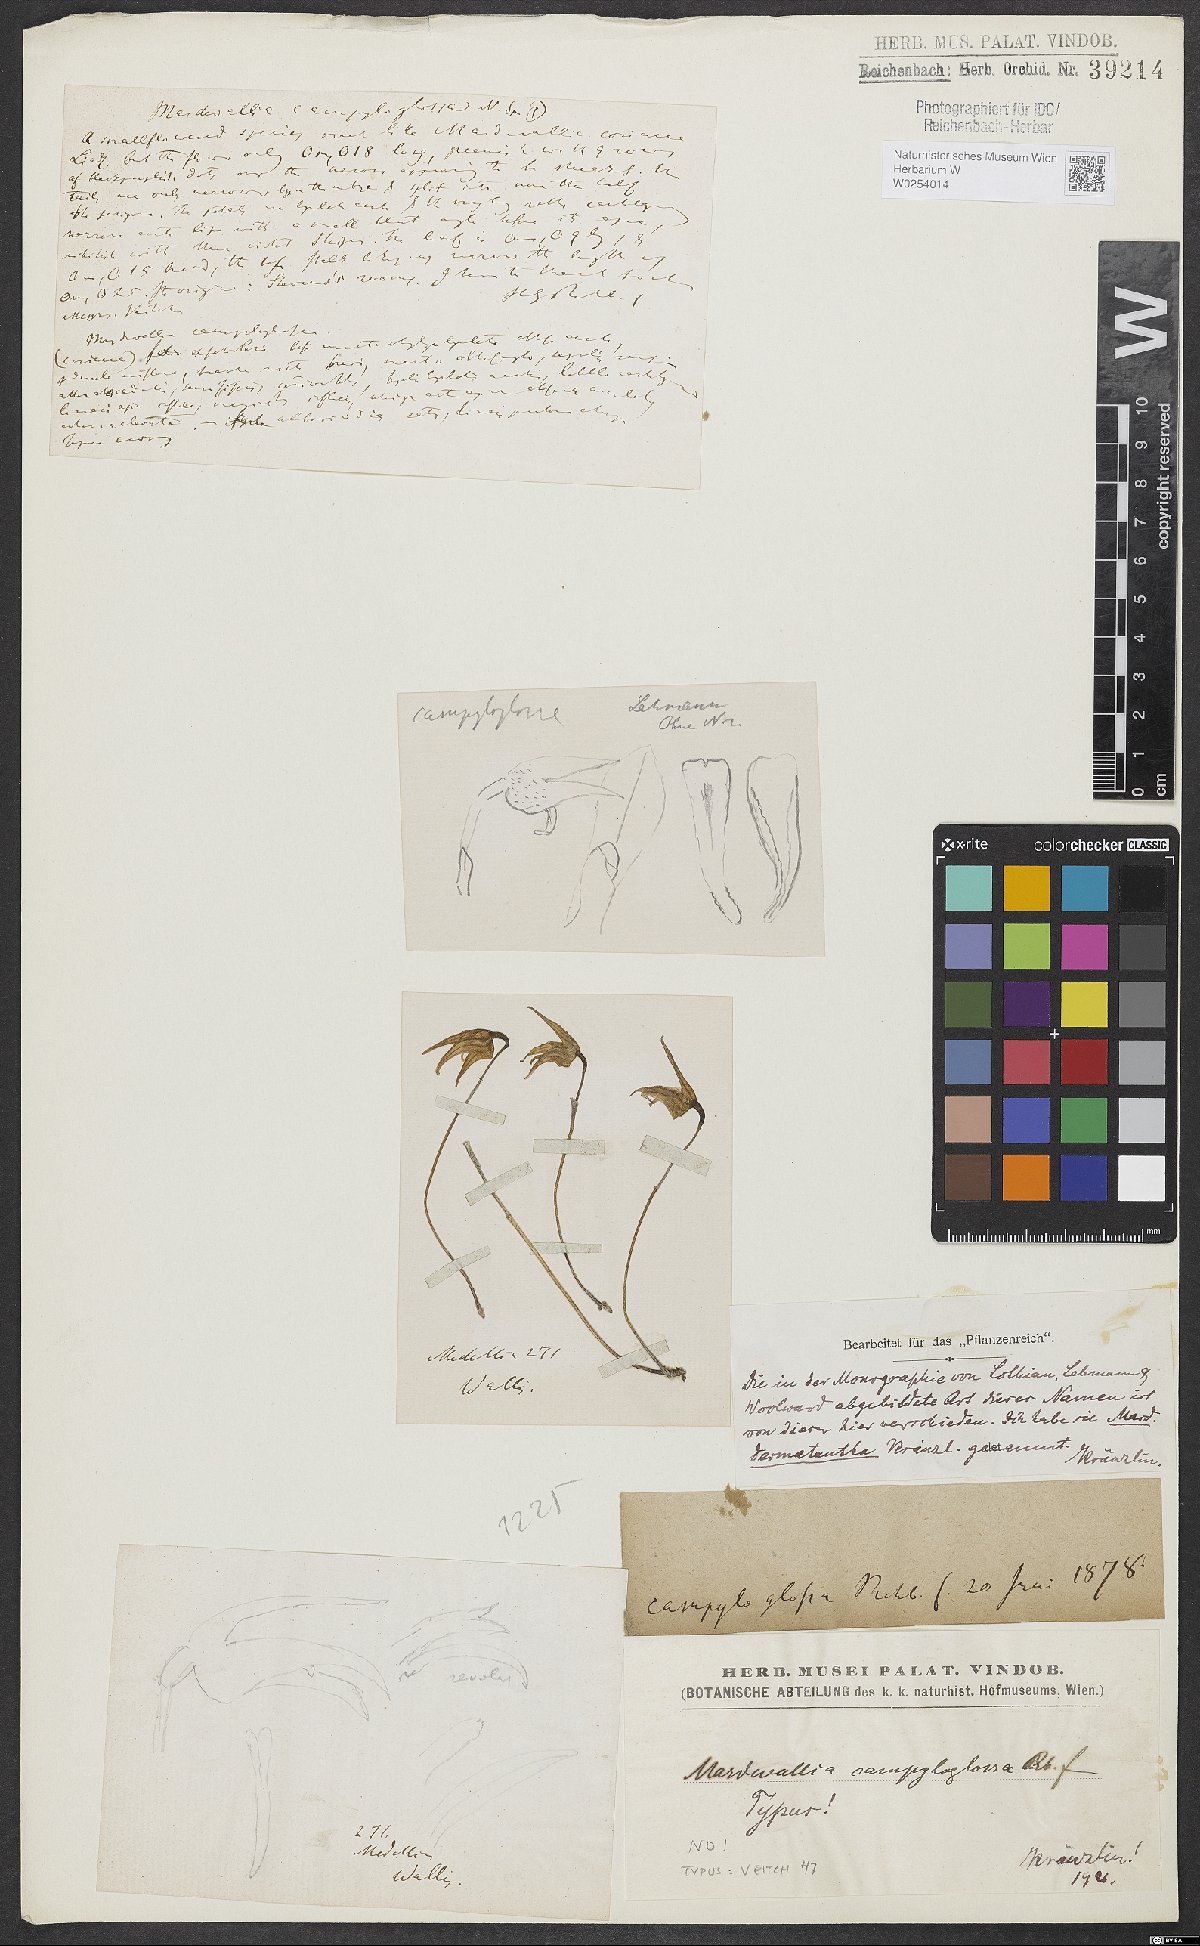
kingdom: Plantae
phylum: Tracheophyta
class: Liliopsida
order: Asparagales
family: Orchidaceae
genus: Masdevallia
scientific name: Masdevallia campyloglossa
